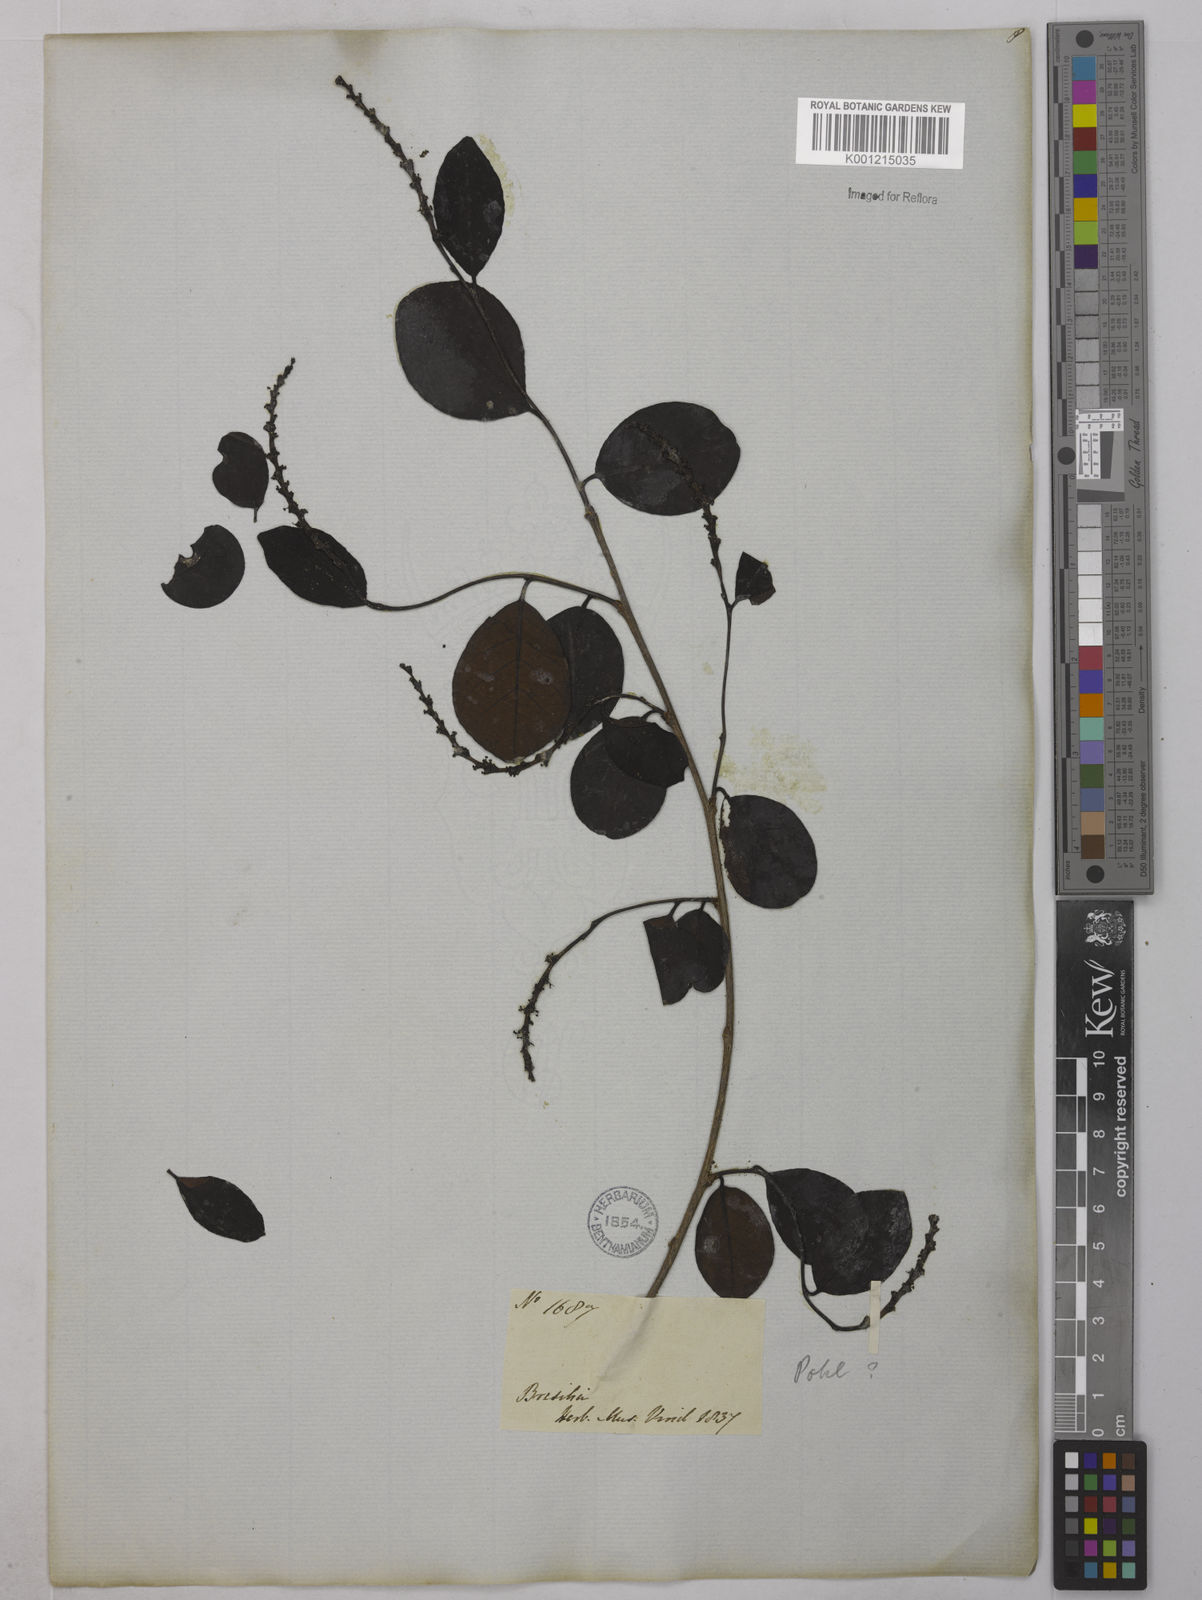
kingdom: Plantae
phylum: Tracheophyta
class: Magnoliopsida
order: Malpighiales
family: Euphorbiaceae
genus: Sebastiania
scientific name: Sebastiania brasiliensis
